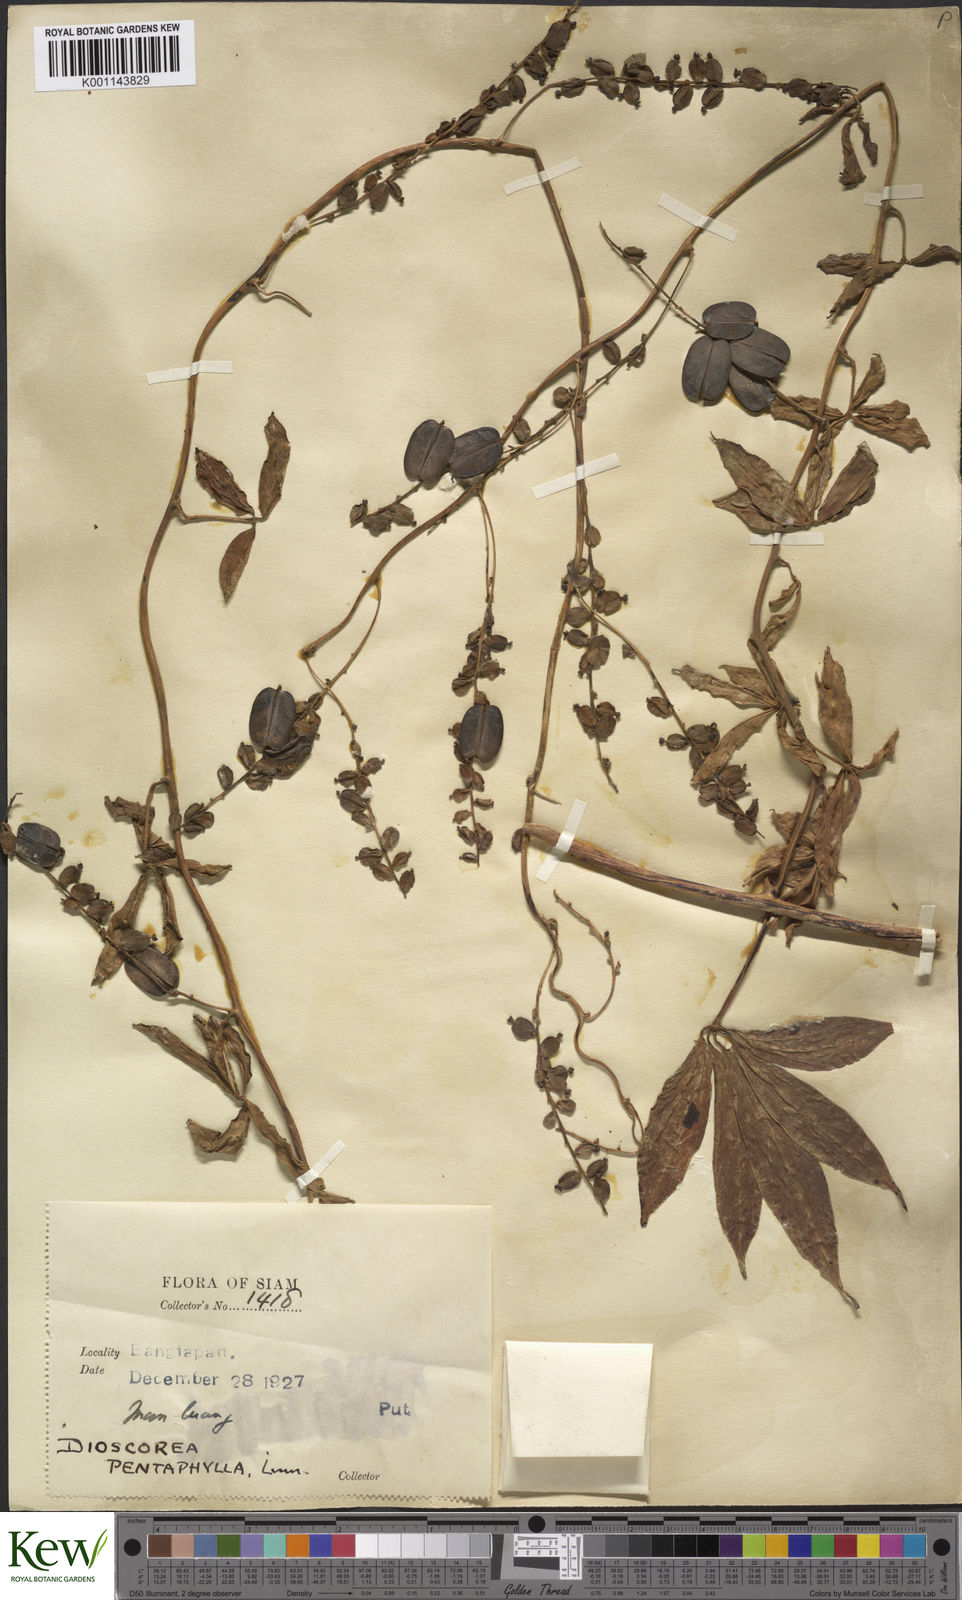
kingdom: Plantae
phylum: Tracheophyta
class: Liliopsida
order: Dioscoreales
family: Dioscoreaceae
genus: Dioscorea
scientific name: Dioscorea pentaphylla
